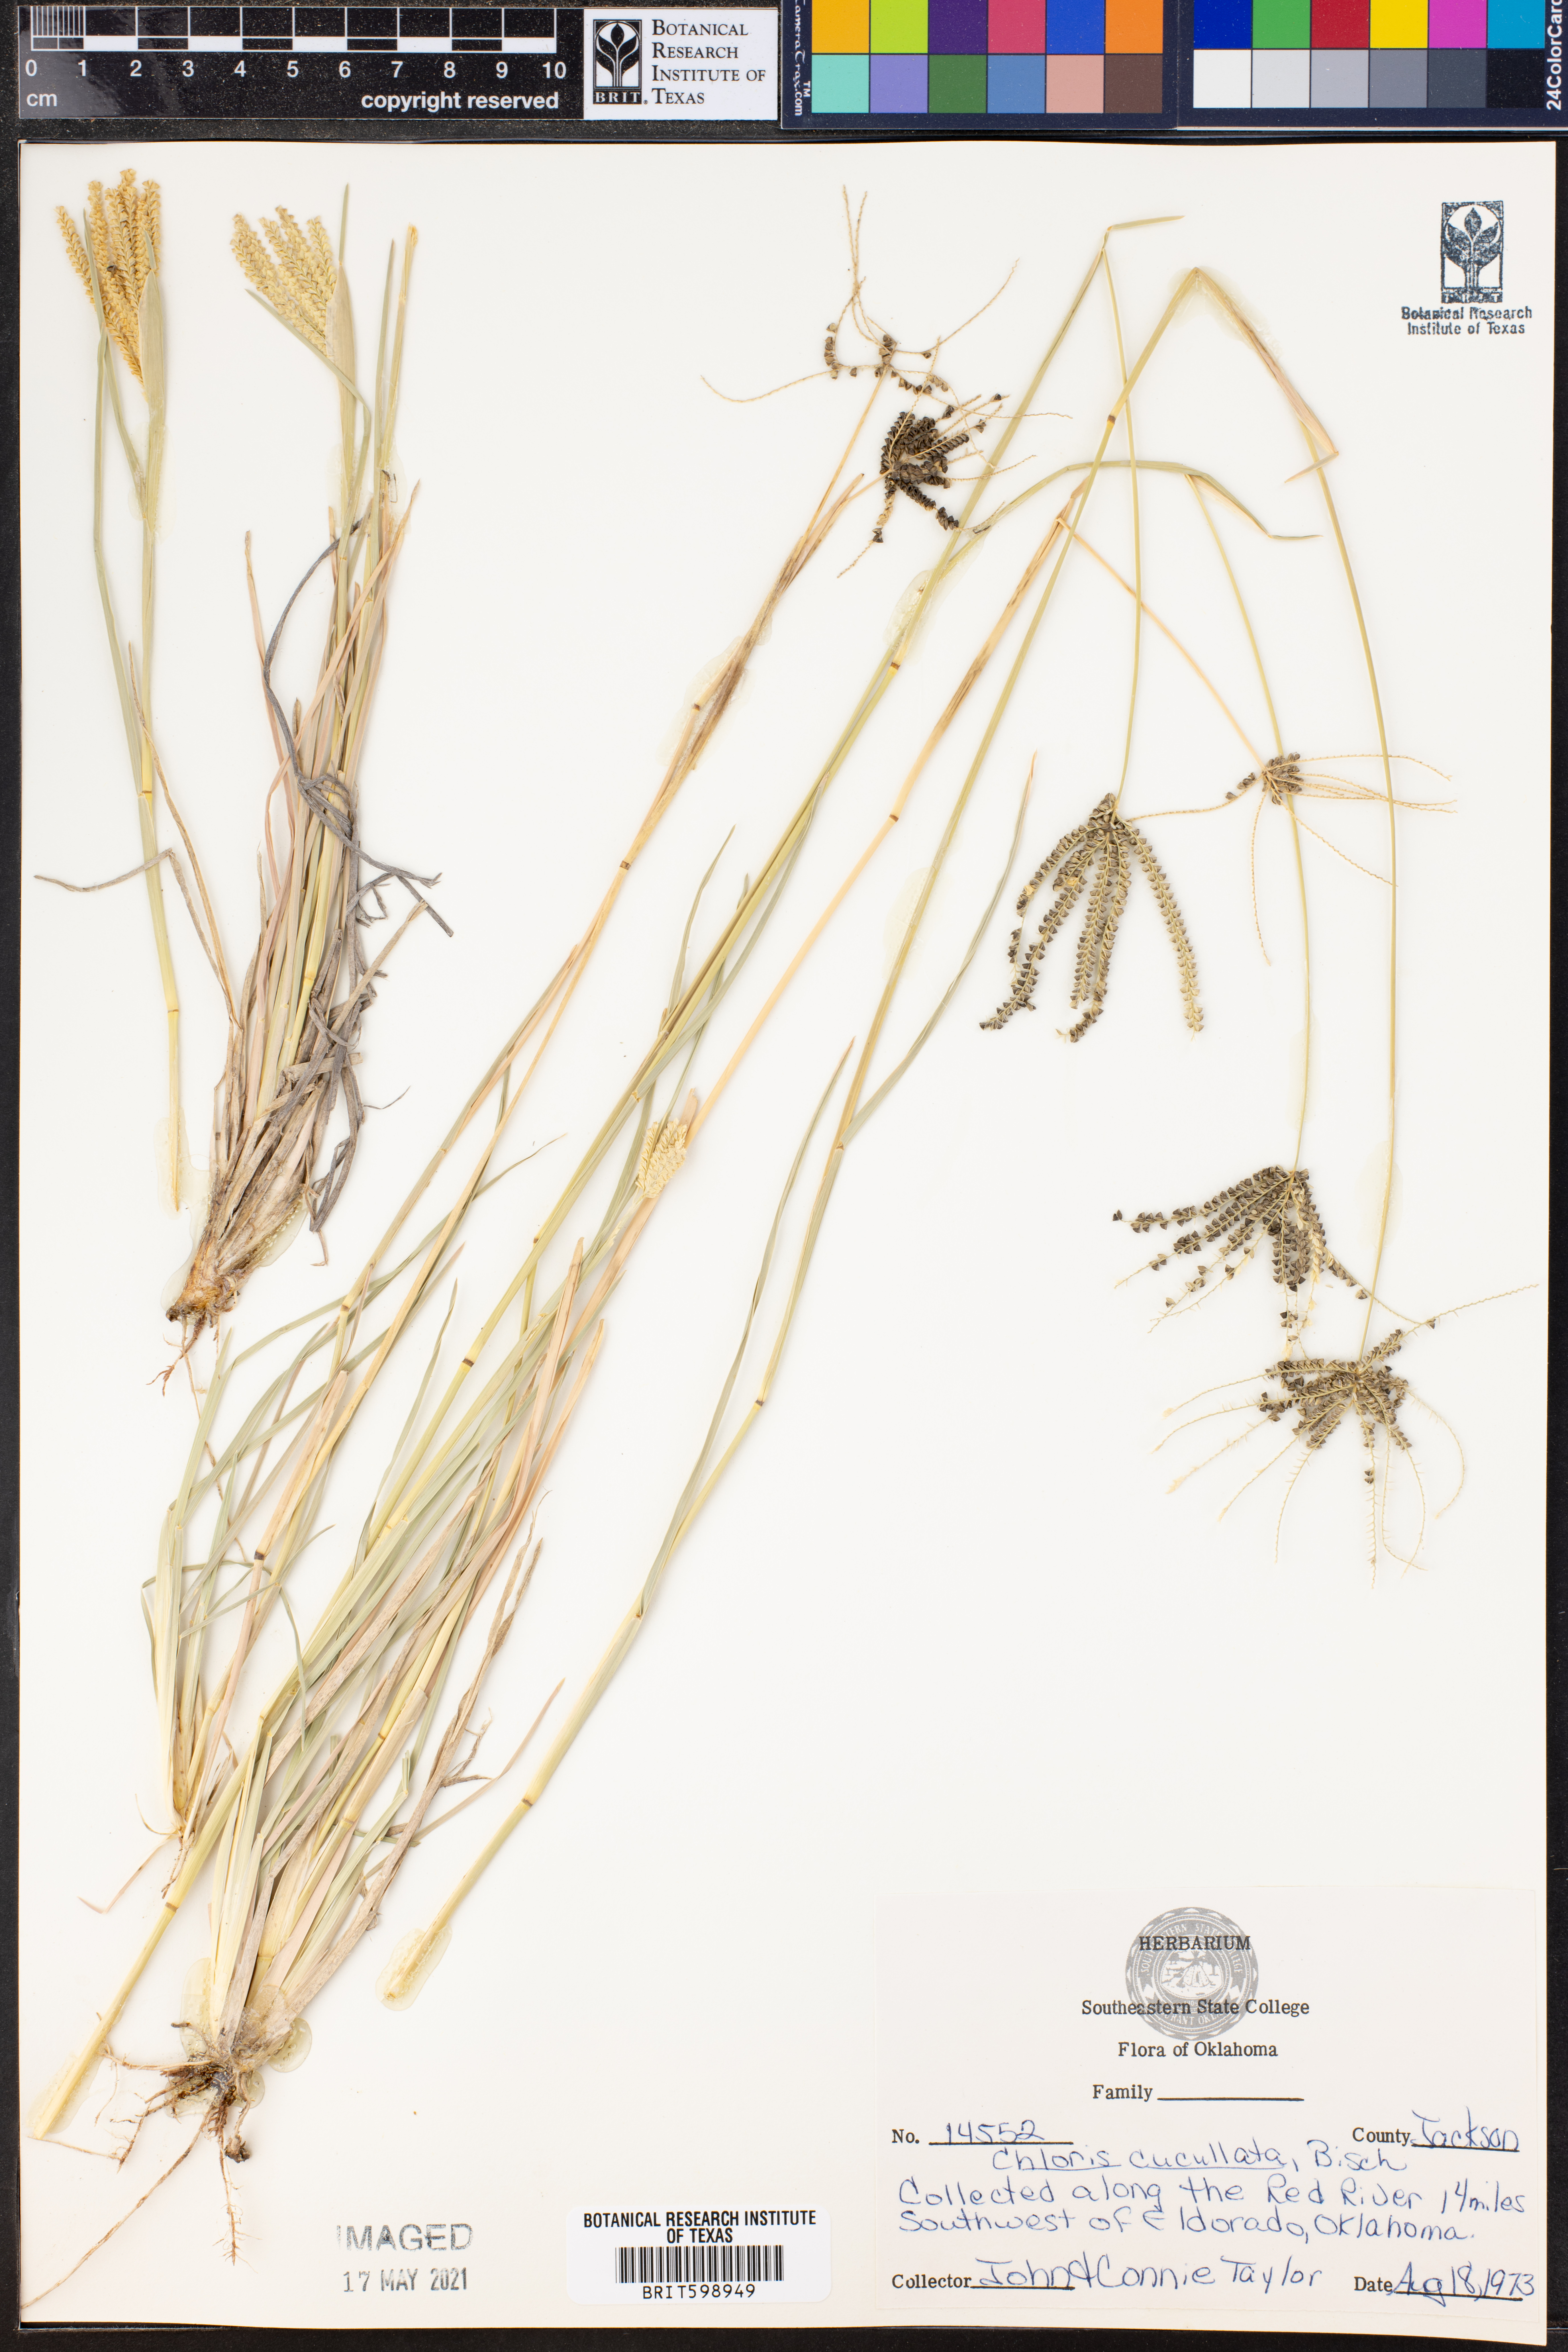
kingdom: Plantae
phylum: Tracheophyta
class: Liliopsida
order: Poales
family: Poaceae
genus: Chloris
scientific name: Chloris cucullata
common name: Hooded windmill grass
